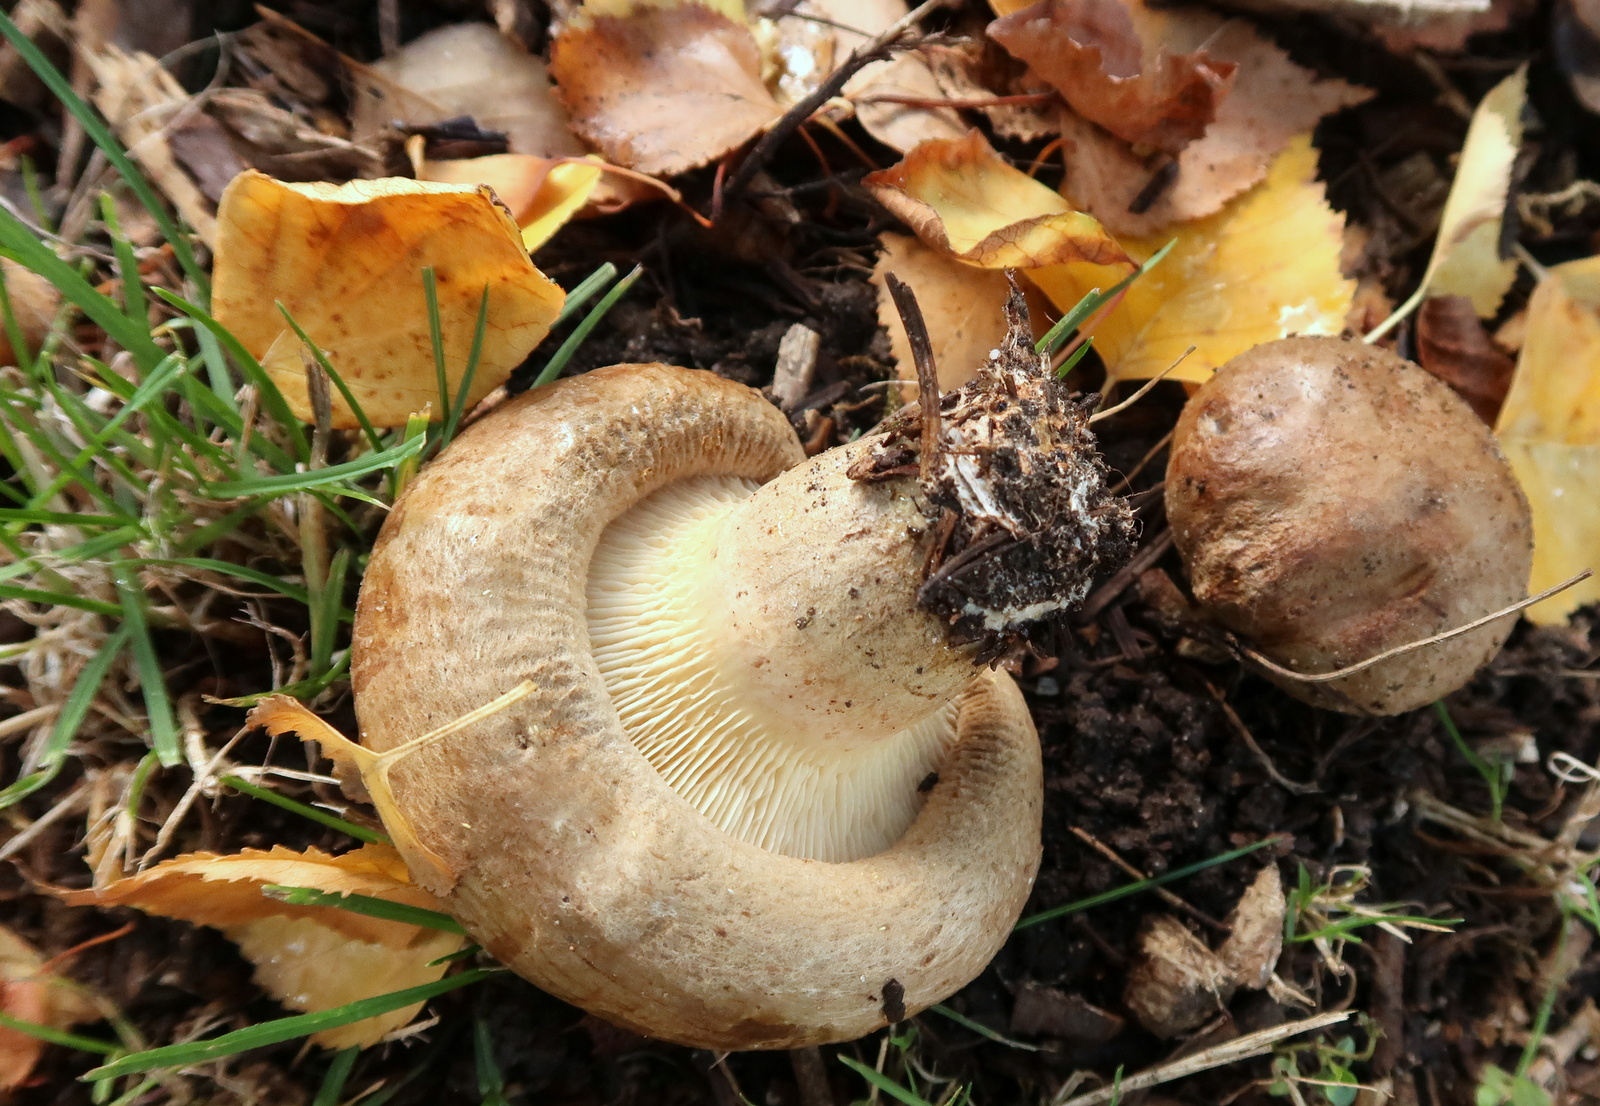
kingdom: Fungi
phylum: Basidiomycota
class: Agaricomycetes
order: Boletales
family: Paxillaceae
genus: Paxillus
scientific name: Paxillus involutus
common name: almindelig netbladhat
